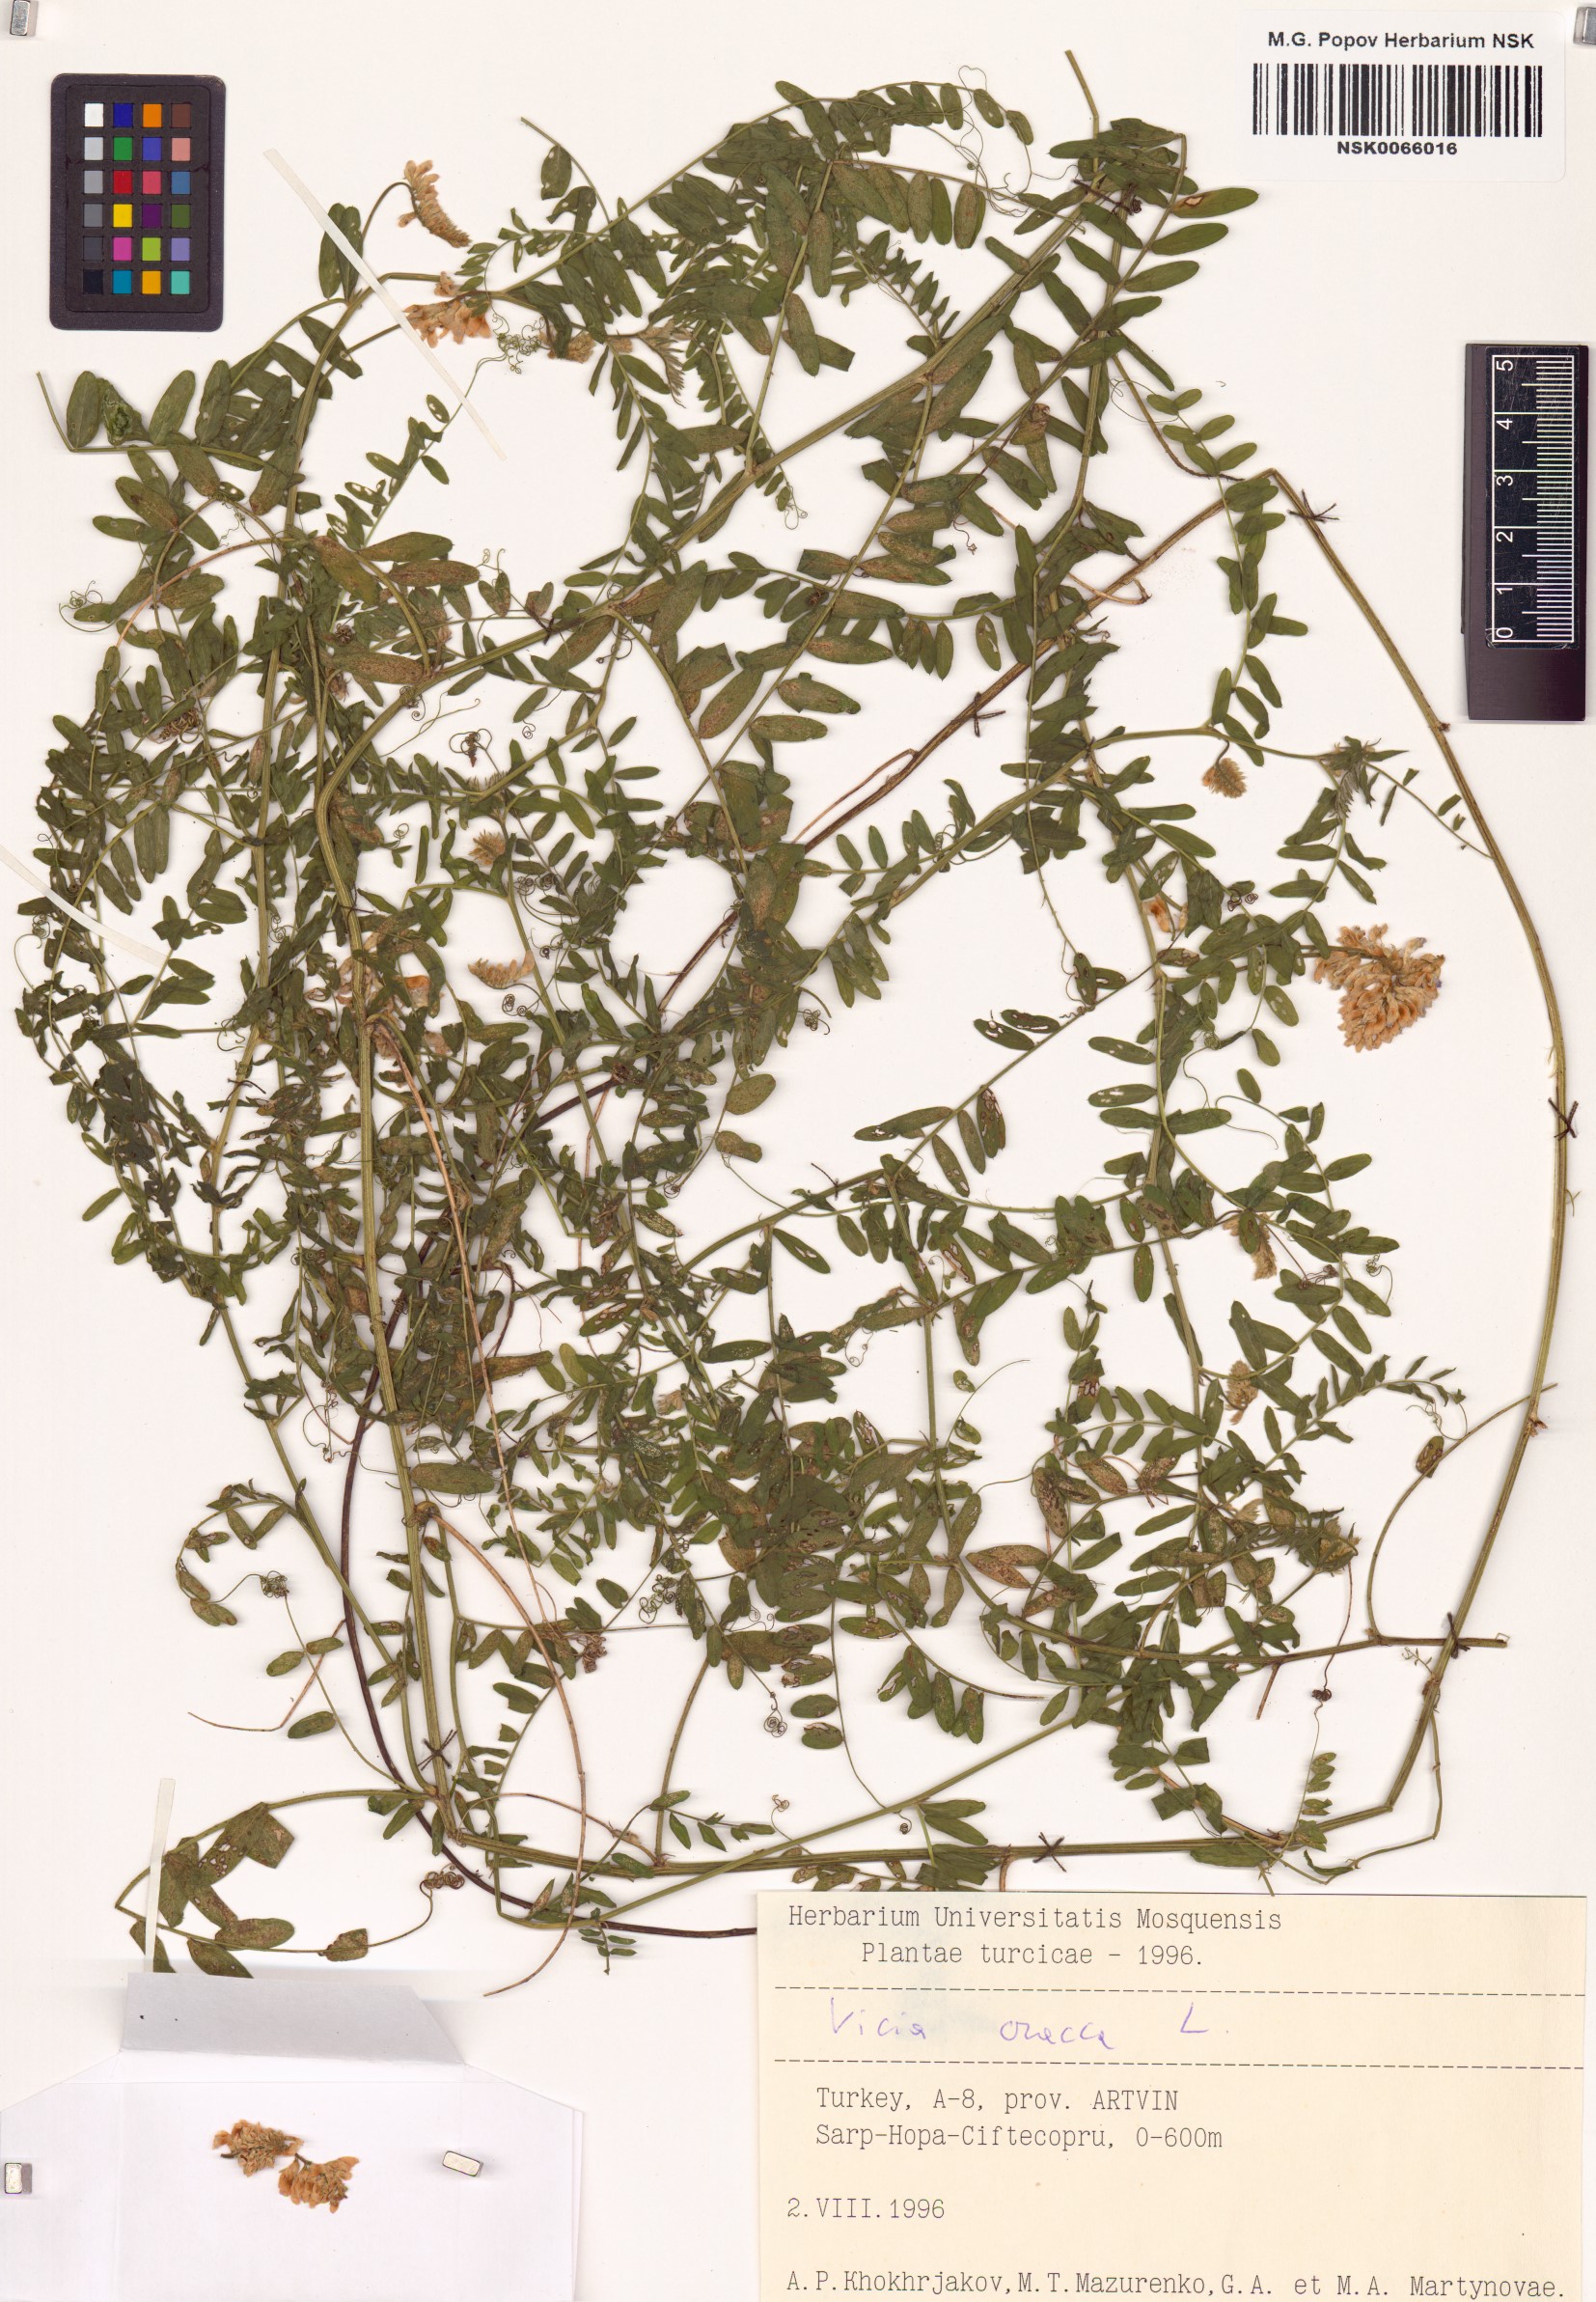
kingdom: Plantae
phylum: Tracheophyta
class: Magnoliopsida
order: Fabales
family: Fabaceae
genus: Vicia
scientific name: Vicia cracca
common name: Bird vetch
